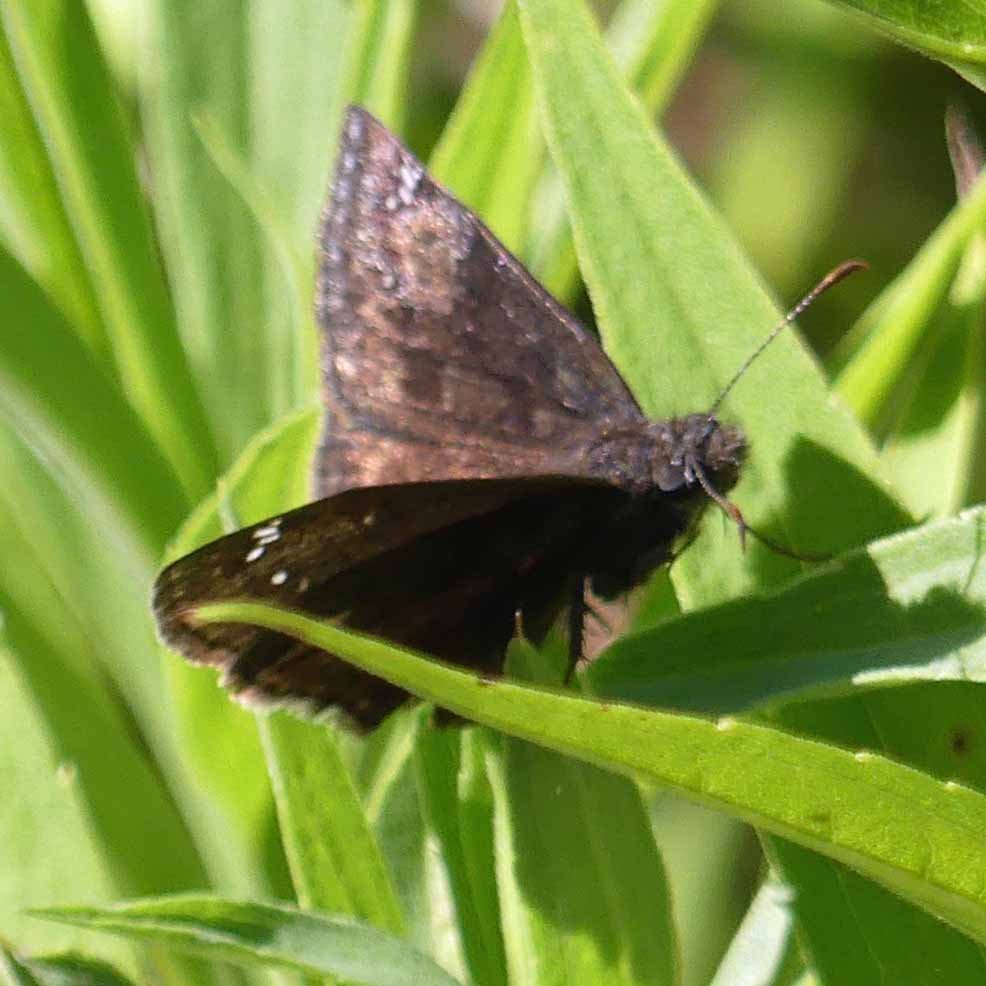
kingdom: Animalia
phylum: Arthropoda
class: Insecta
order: Lepidoptera
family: Hesperiidae
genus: Gesta
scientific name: Gesta
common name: Wild Indigo Duskywing
